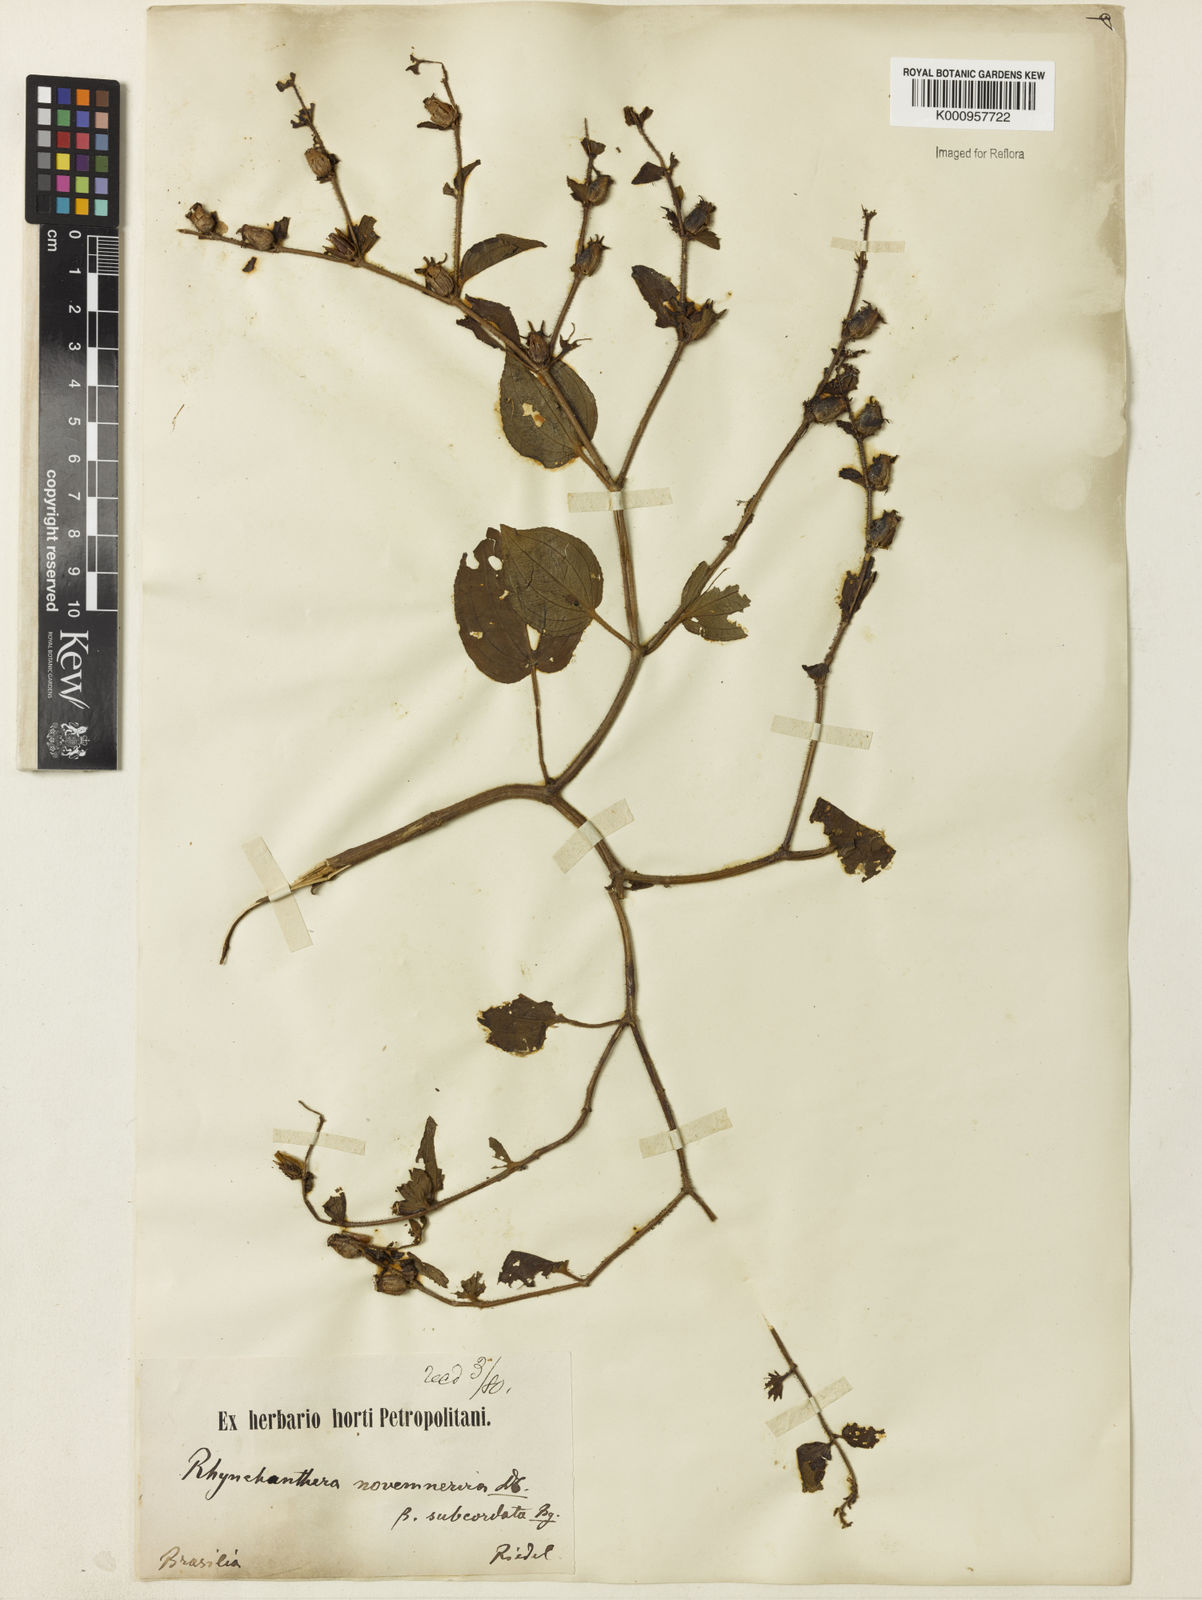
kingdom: Plantae
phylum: Tracheophyta
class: Magnoliopsida
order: Myrtales
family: Melastomataceae
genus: Rhynchanthera
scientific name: Rhynchanthera novemnervia
